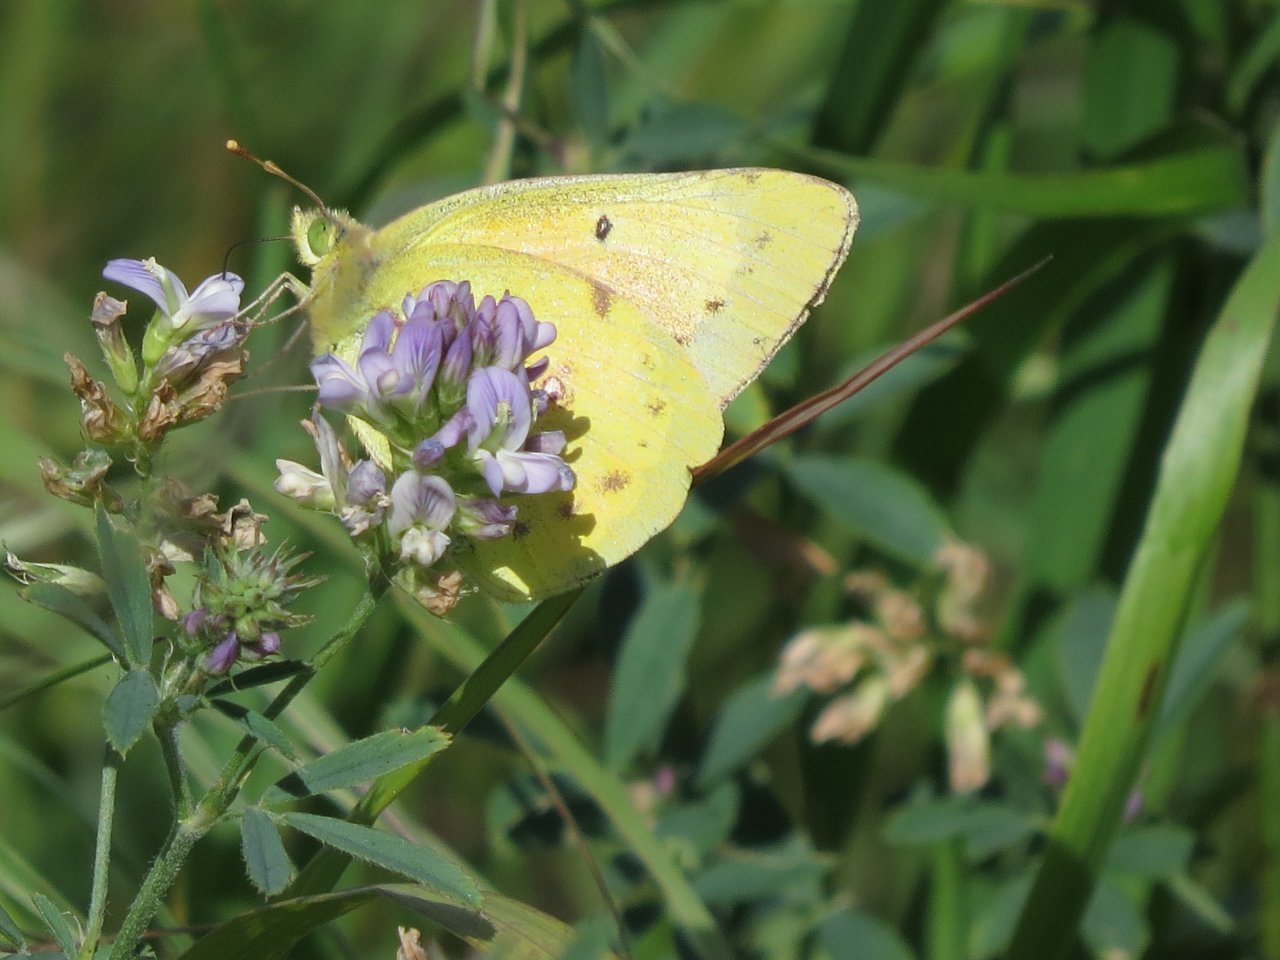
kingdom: Animalia
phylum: Arthropoda
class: Insecta
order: Lepidoptera
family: Pieridae
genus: Colias
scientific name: Colias eurytheme
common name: Orange Sulphur
